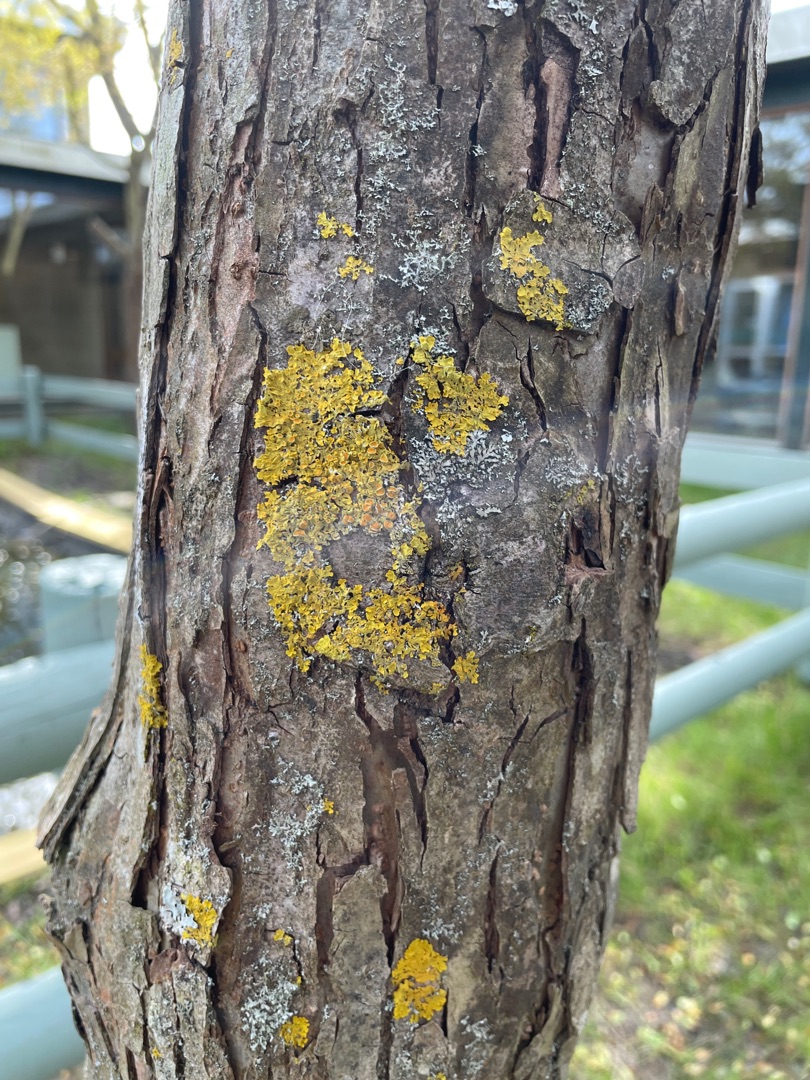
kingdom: Fungi
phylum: Ascomycota
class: Lecanoromycetes
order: Teloschistales
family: Teloschistaceae
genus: Xanthoria
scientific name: Xanthoria parietina
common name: Almindelig væggelav
